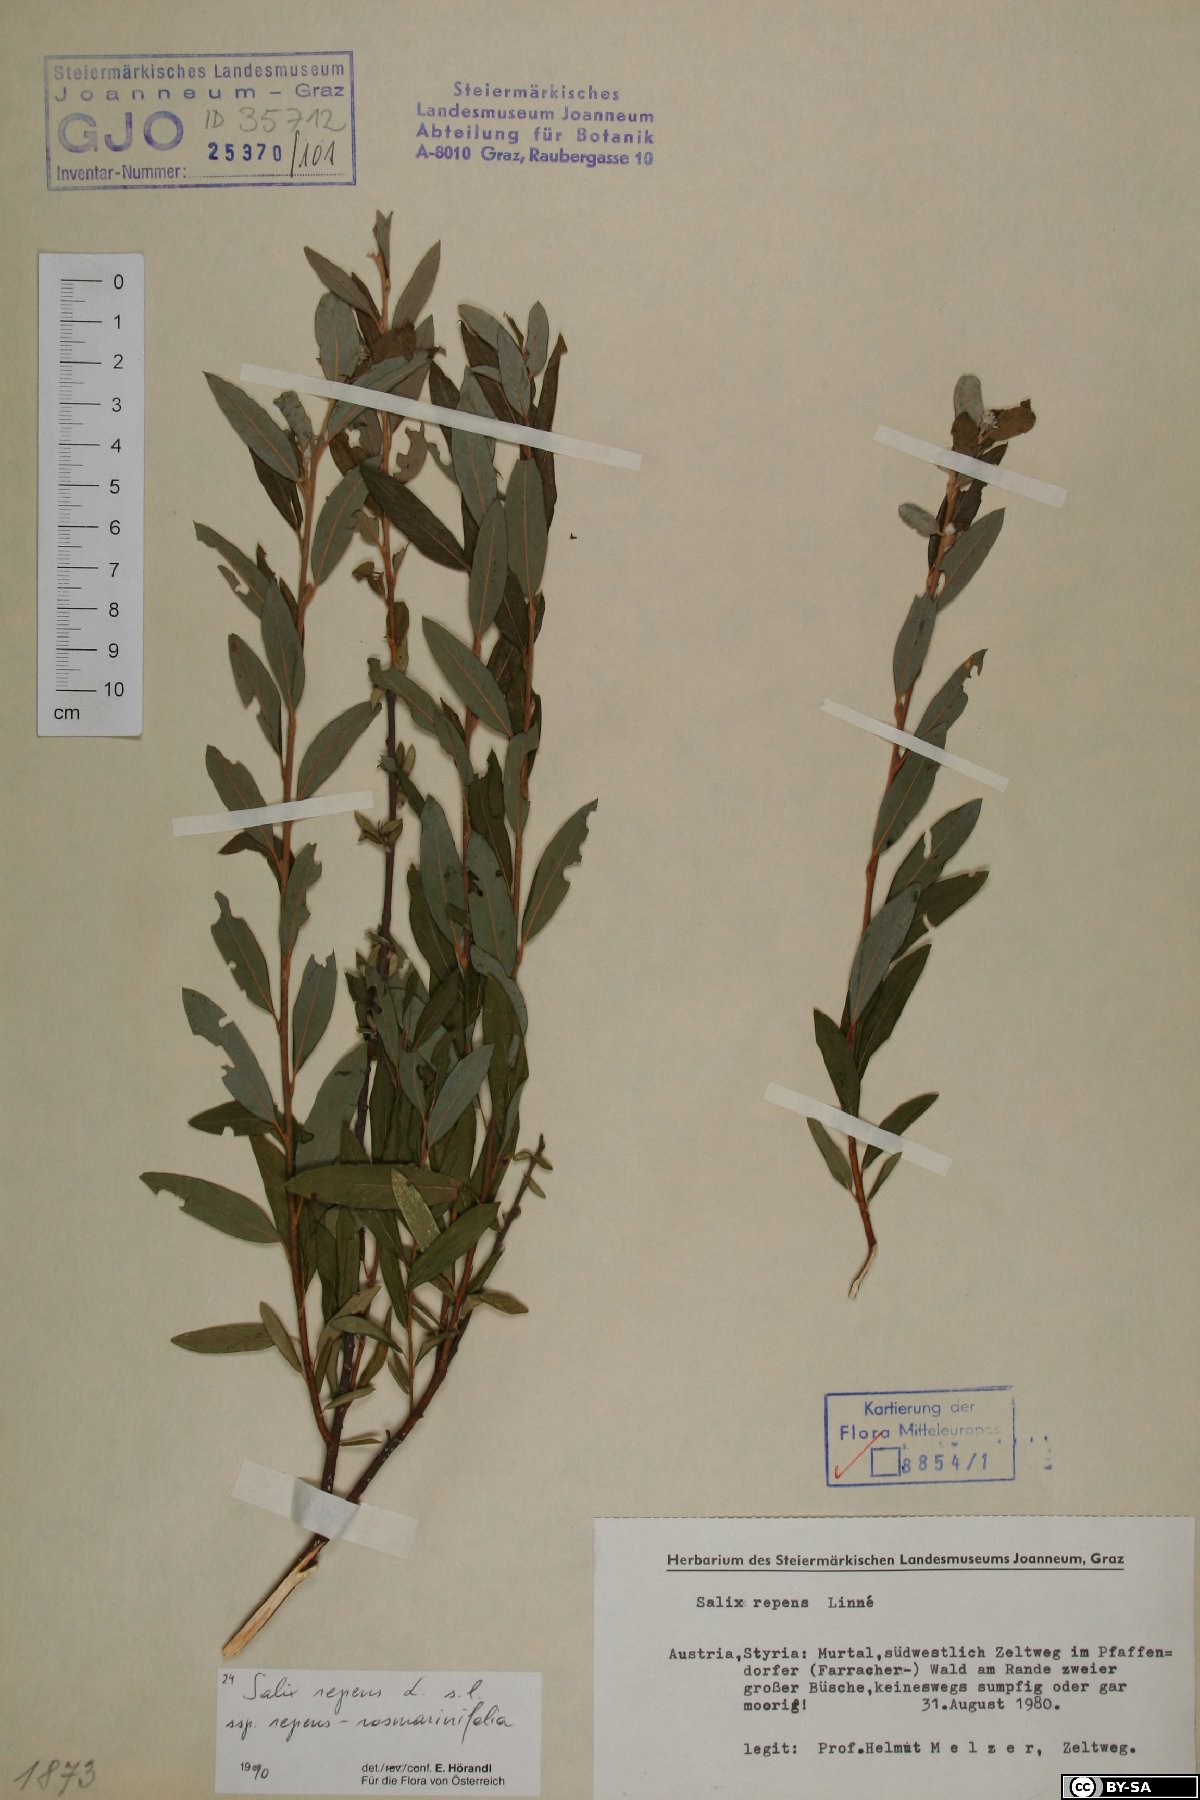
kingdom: Plantae
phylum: Tracheophyta
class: Magnoliopsida
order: Malpighiales
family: Salicaceae
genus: Salix
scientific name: Salix repens
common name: Creeping willow
